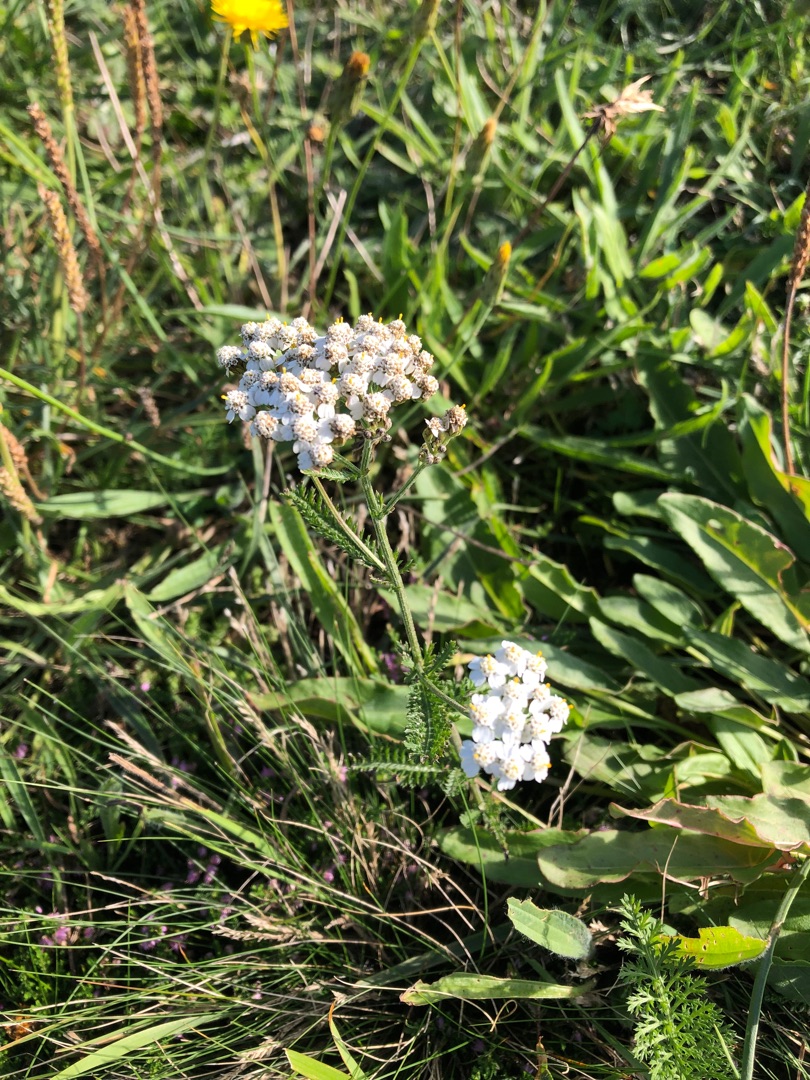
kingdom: Plantae
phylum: Tracheophyta
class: Magnoliopsida
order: Asterales
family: Asteraceae
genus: Achillea
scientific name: Achillea millefolium
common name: Almindelig røllike
